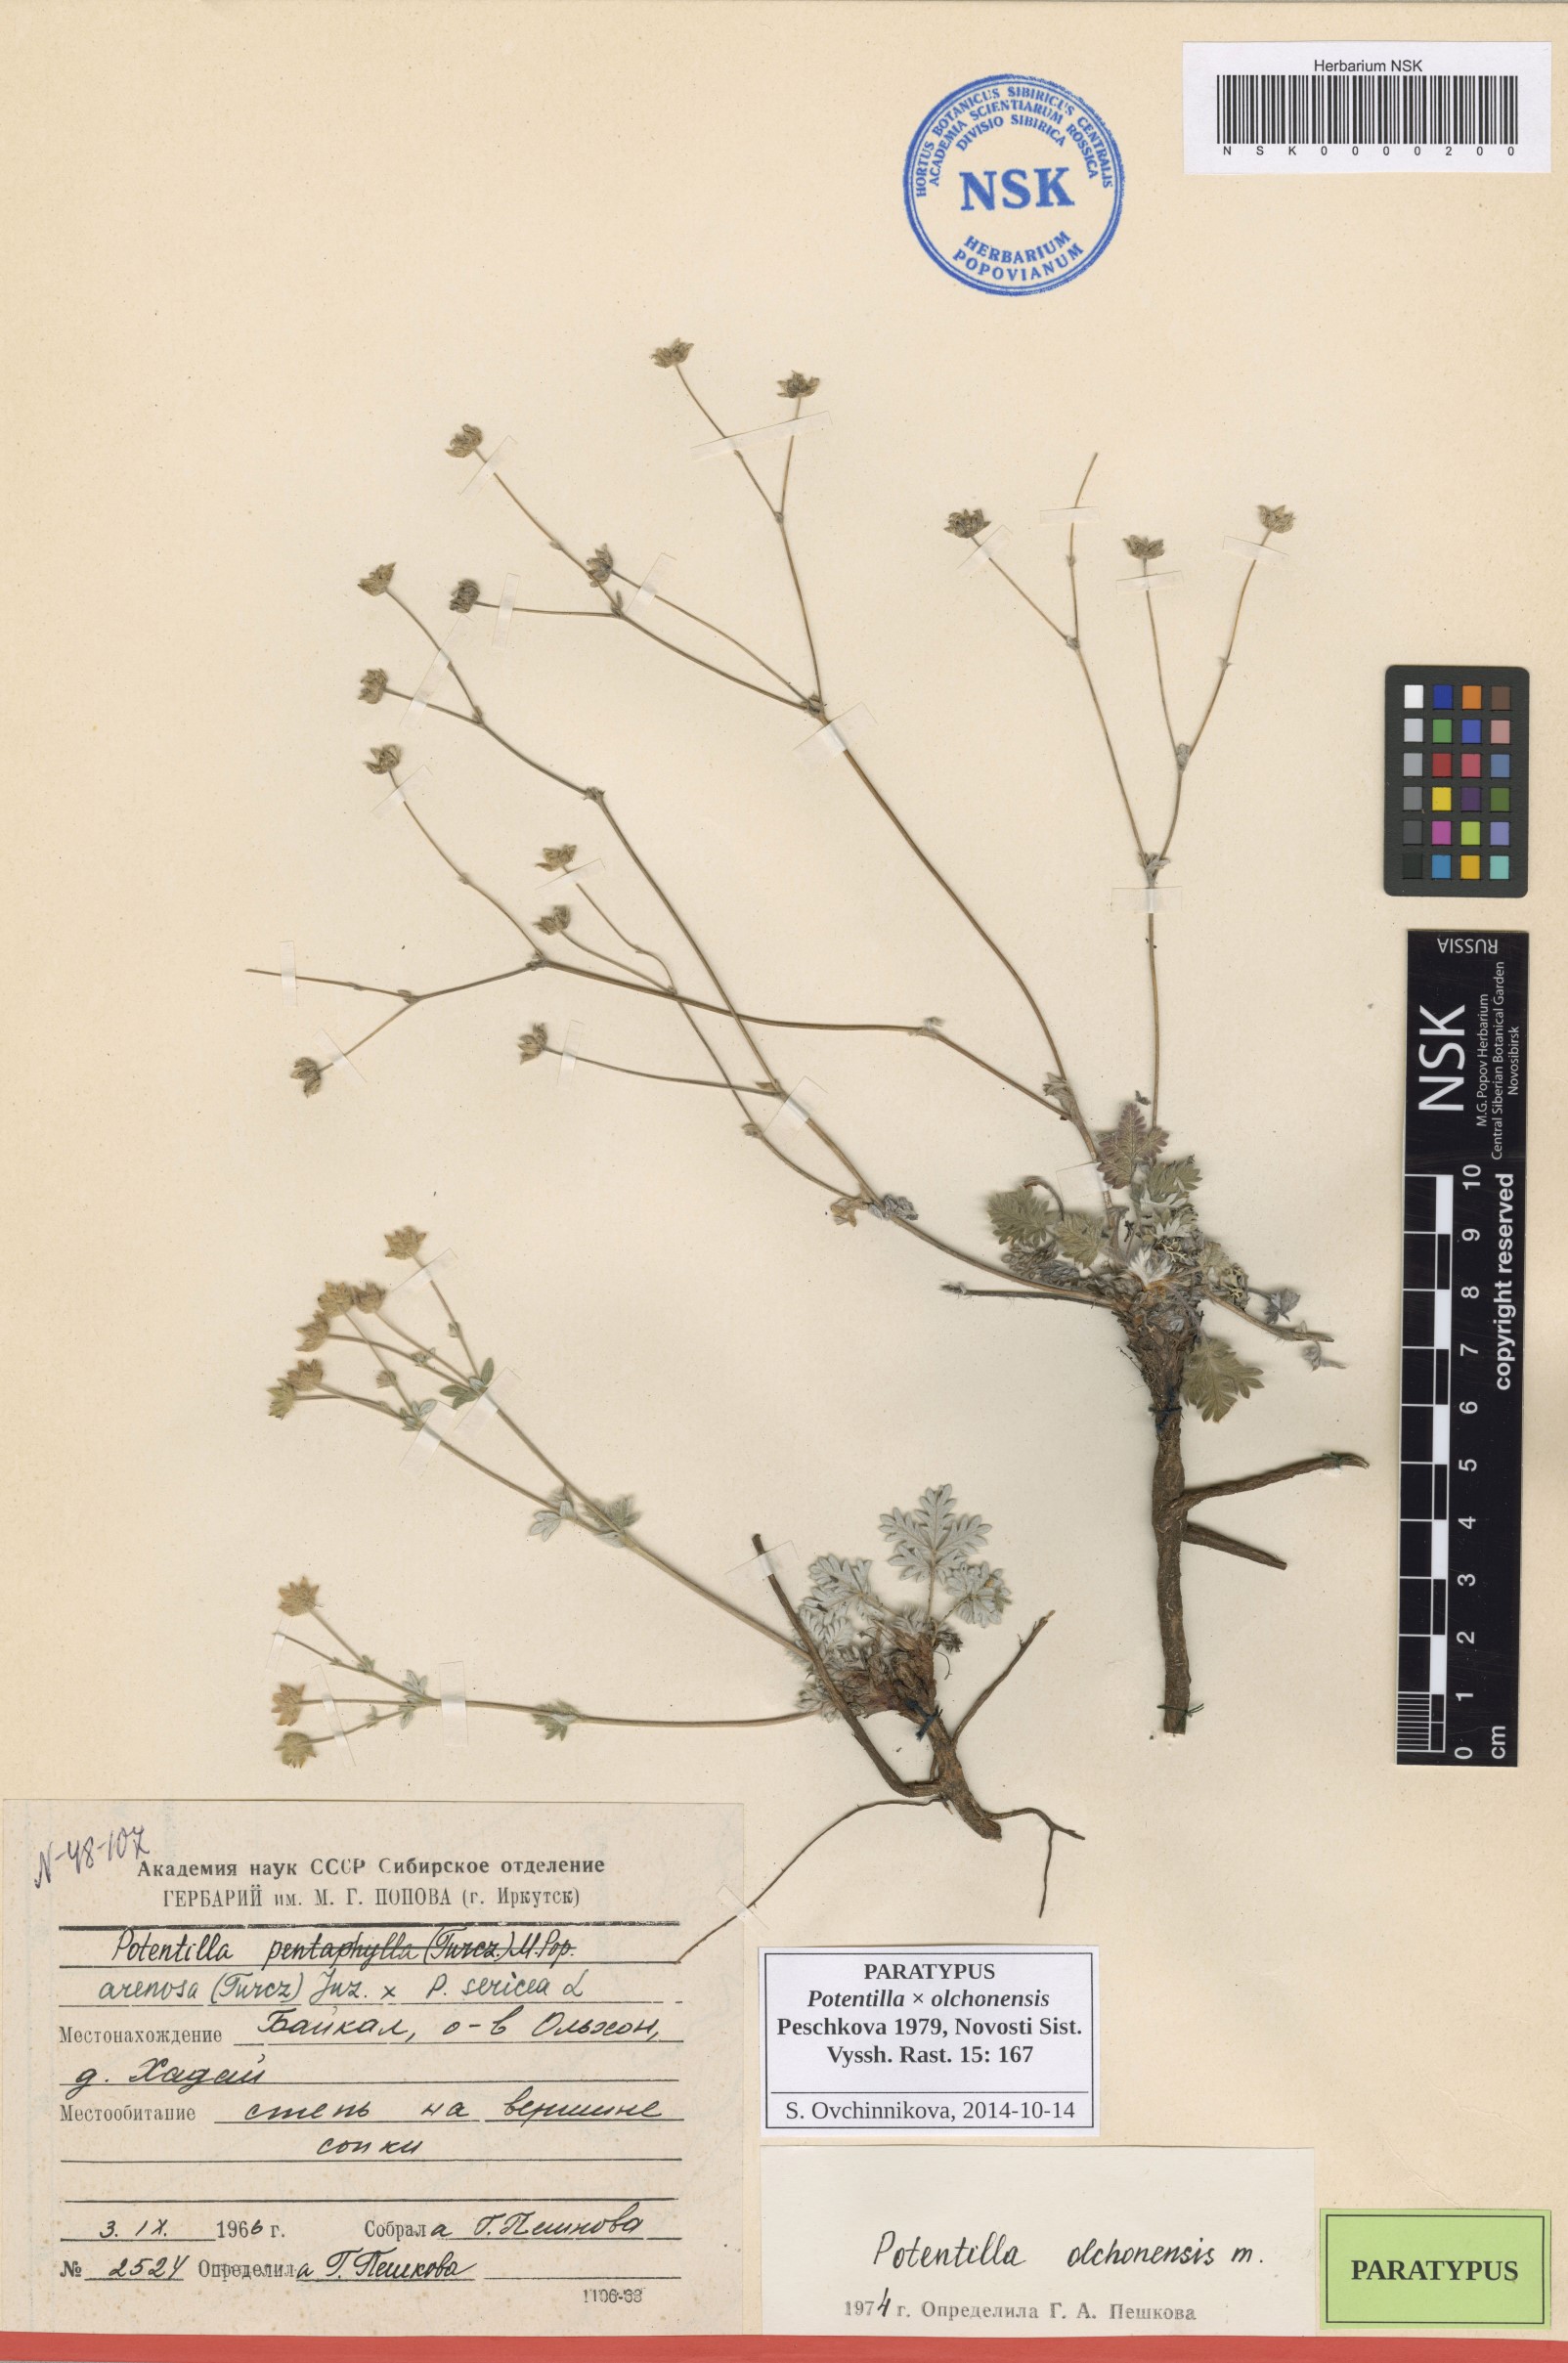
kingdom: Plantae
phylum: Tracheophyta
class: Magnoliopsida
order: Rosales
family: Rosaceae
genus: Potentilla
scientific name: Potentilla olchonensis
